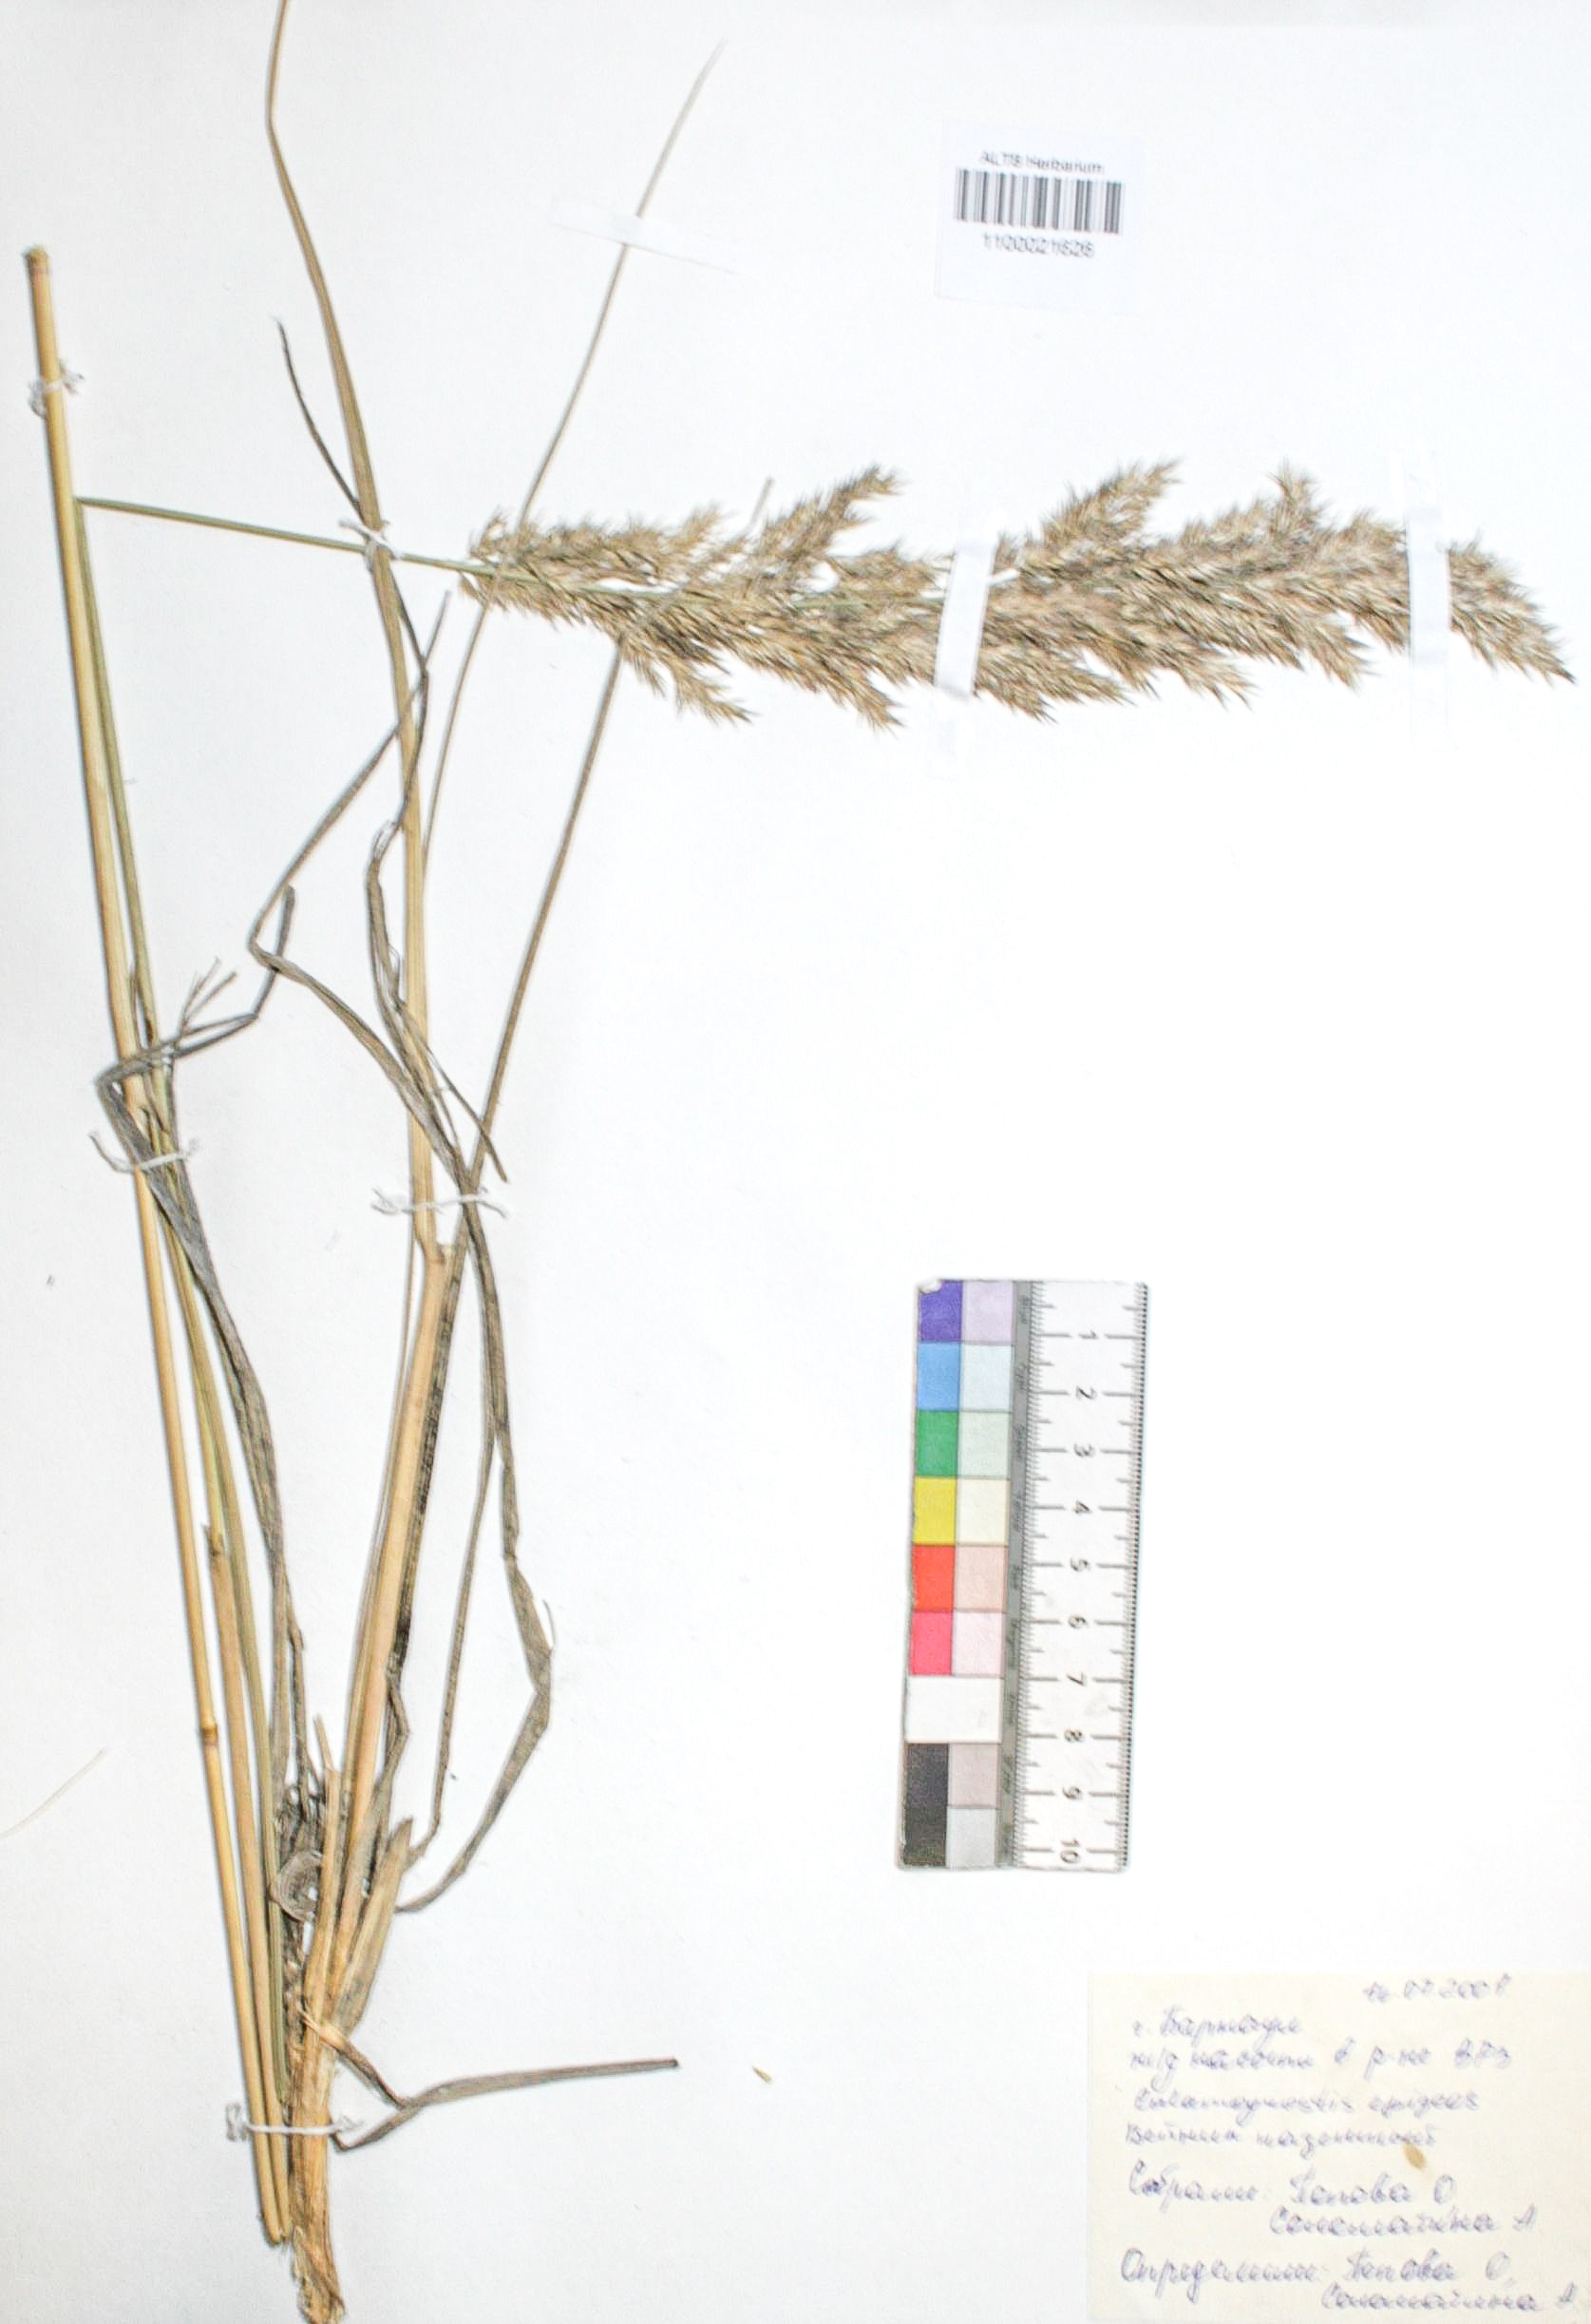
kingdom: Plantae
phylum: Tracheophyta
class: Liliopsida
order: Poales
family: Poaceae
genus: Calamagrostis
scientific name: Calamagrostis epigejos
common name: Wood small-reed
